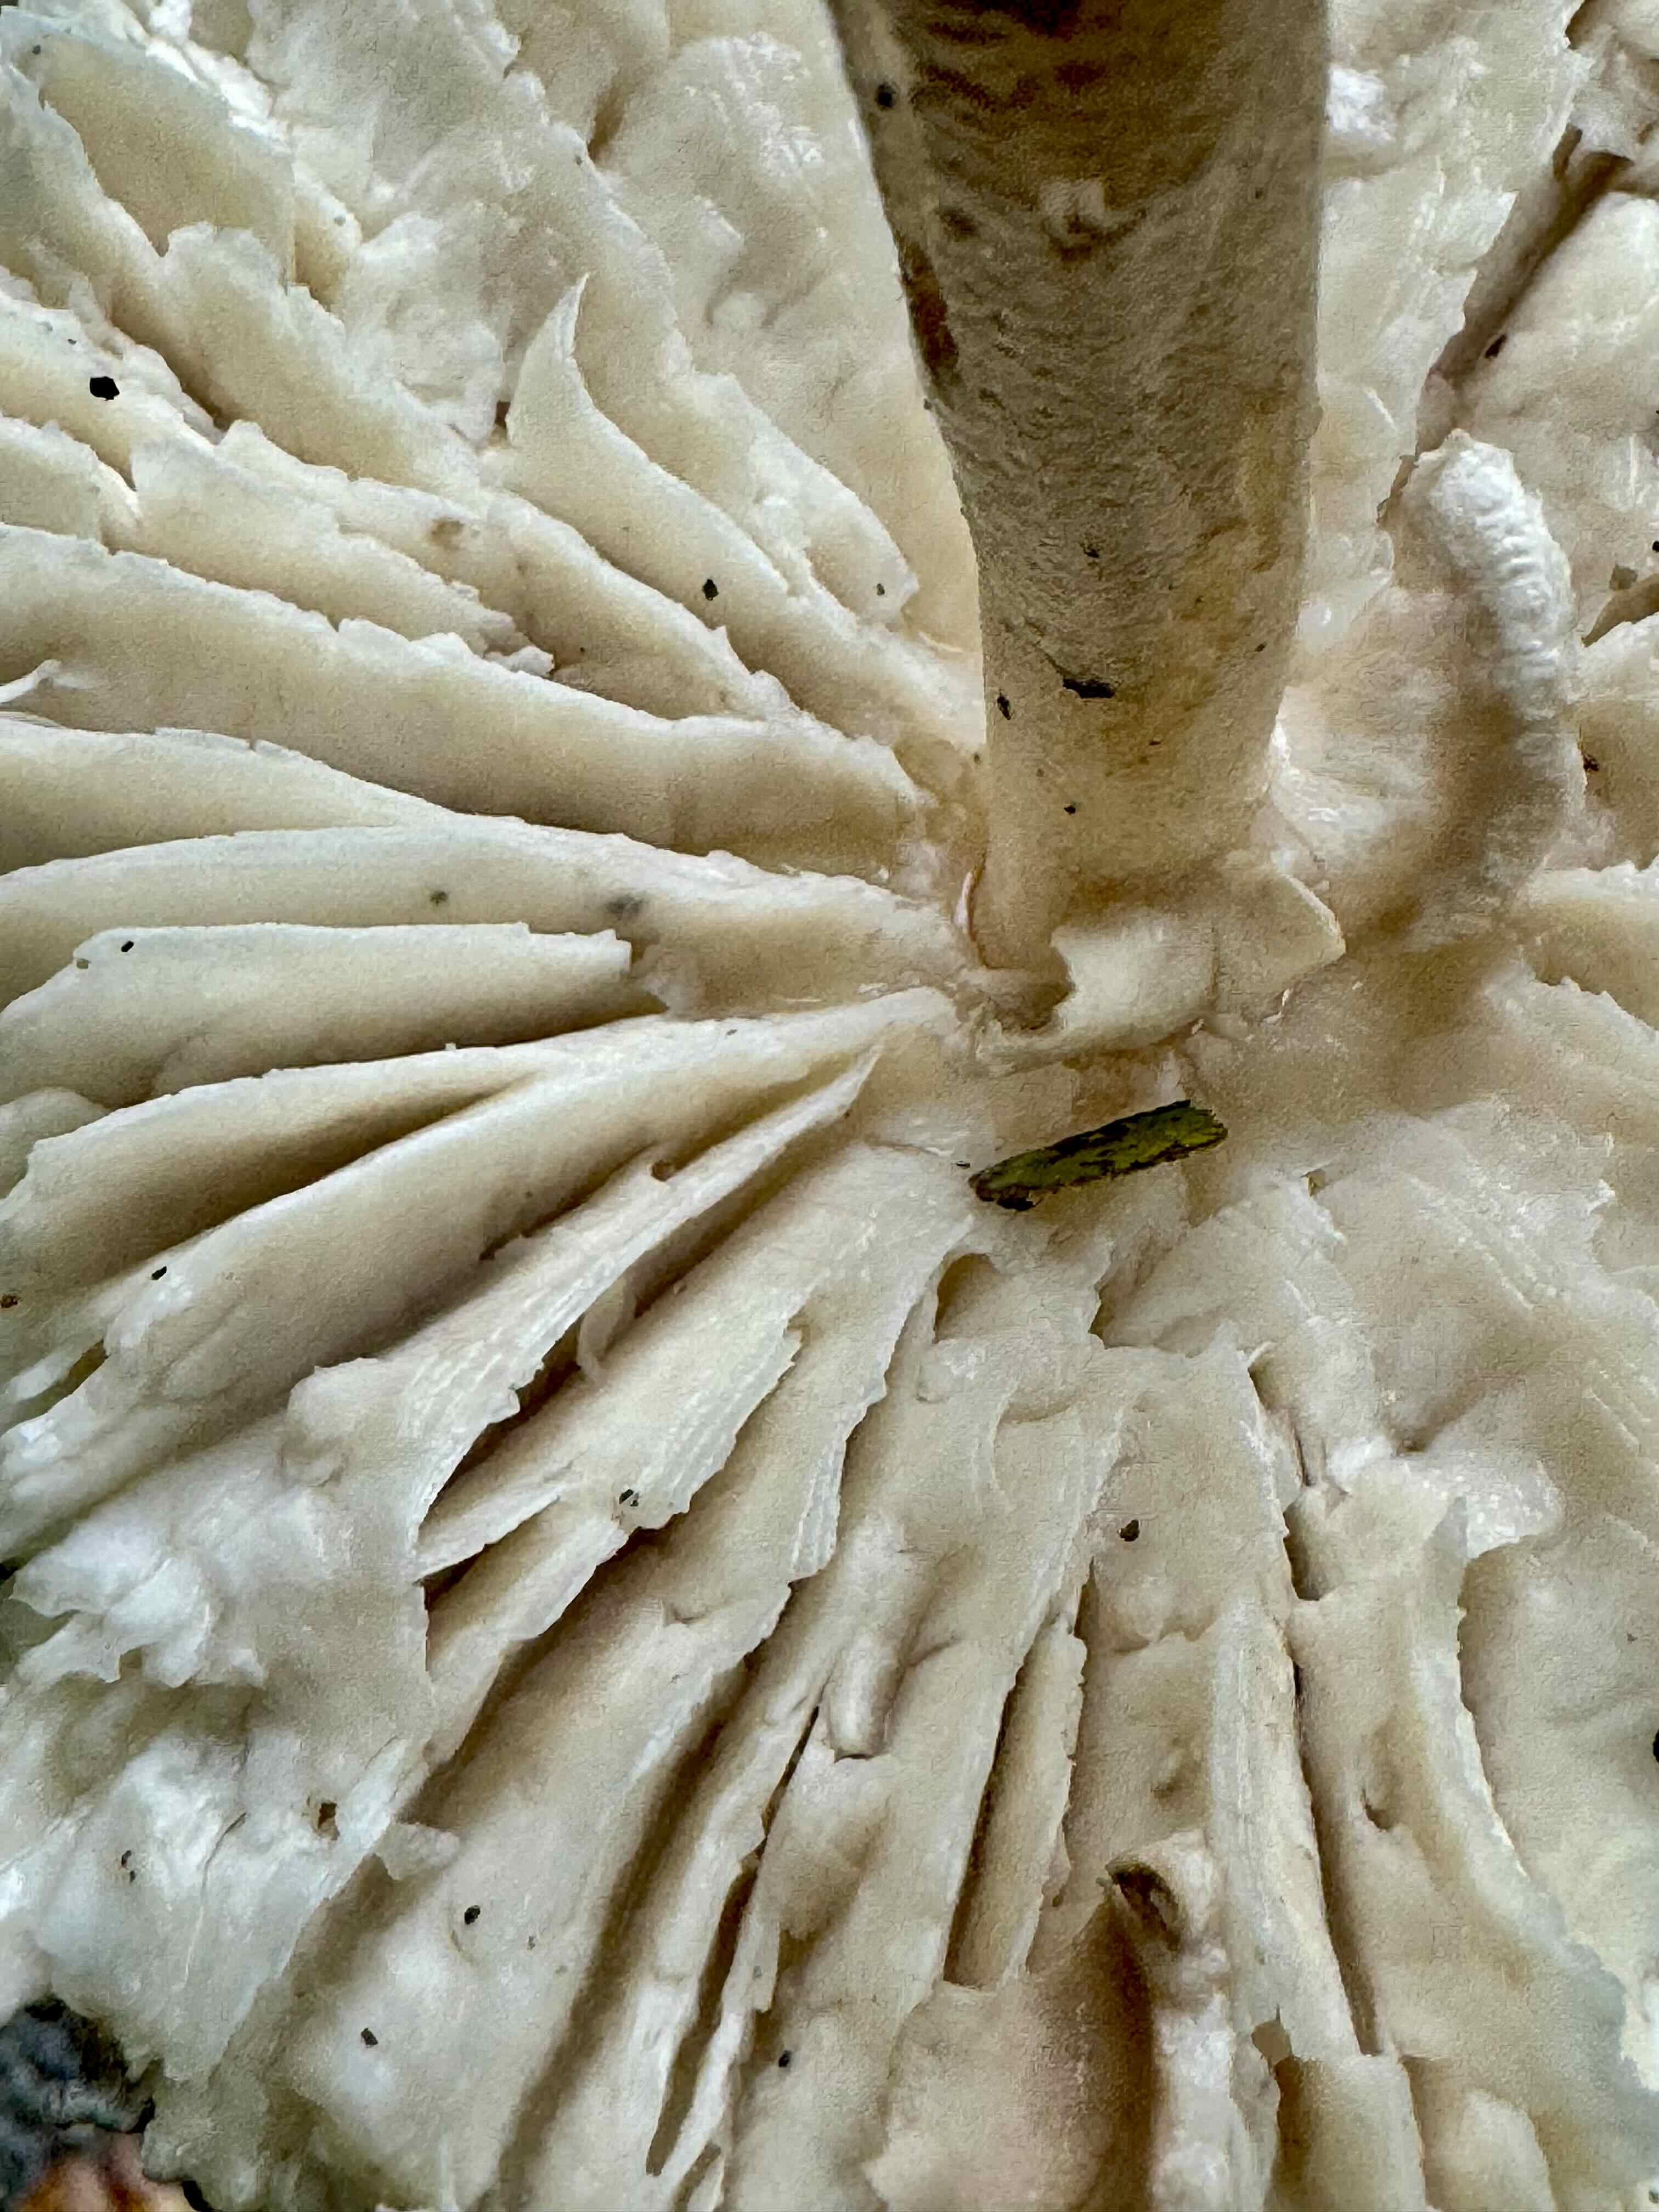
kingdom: Fungi
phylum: Basidiomycota
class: Agaricomycetes
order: Agaricales
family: Agaricaceae
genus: Macrolepiota
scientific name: Macrolepiota mastoidea
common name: puklet kæmpeparasolhat
